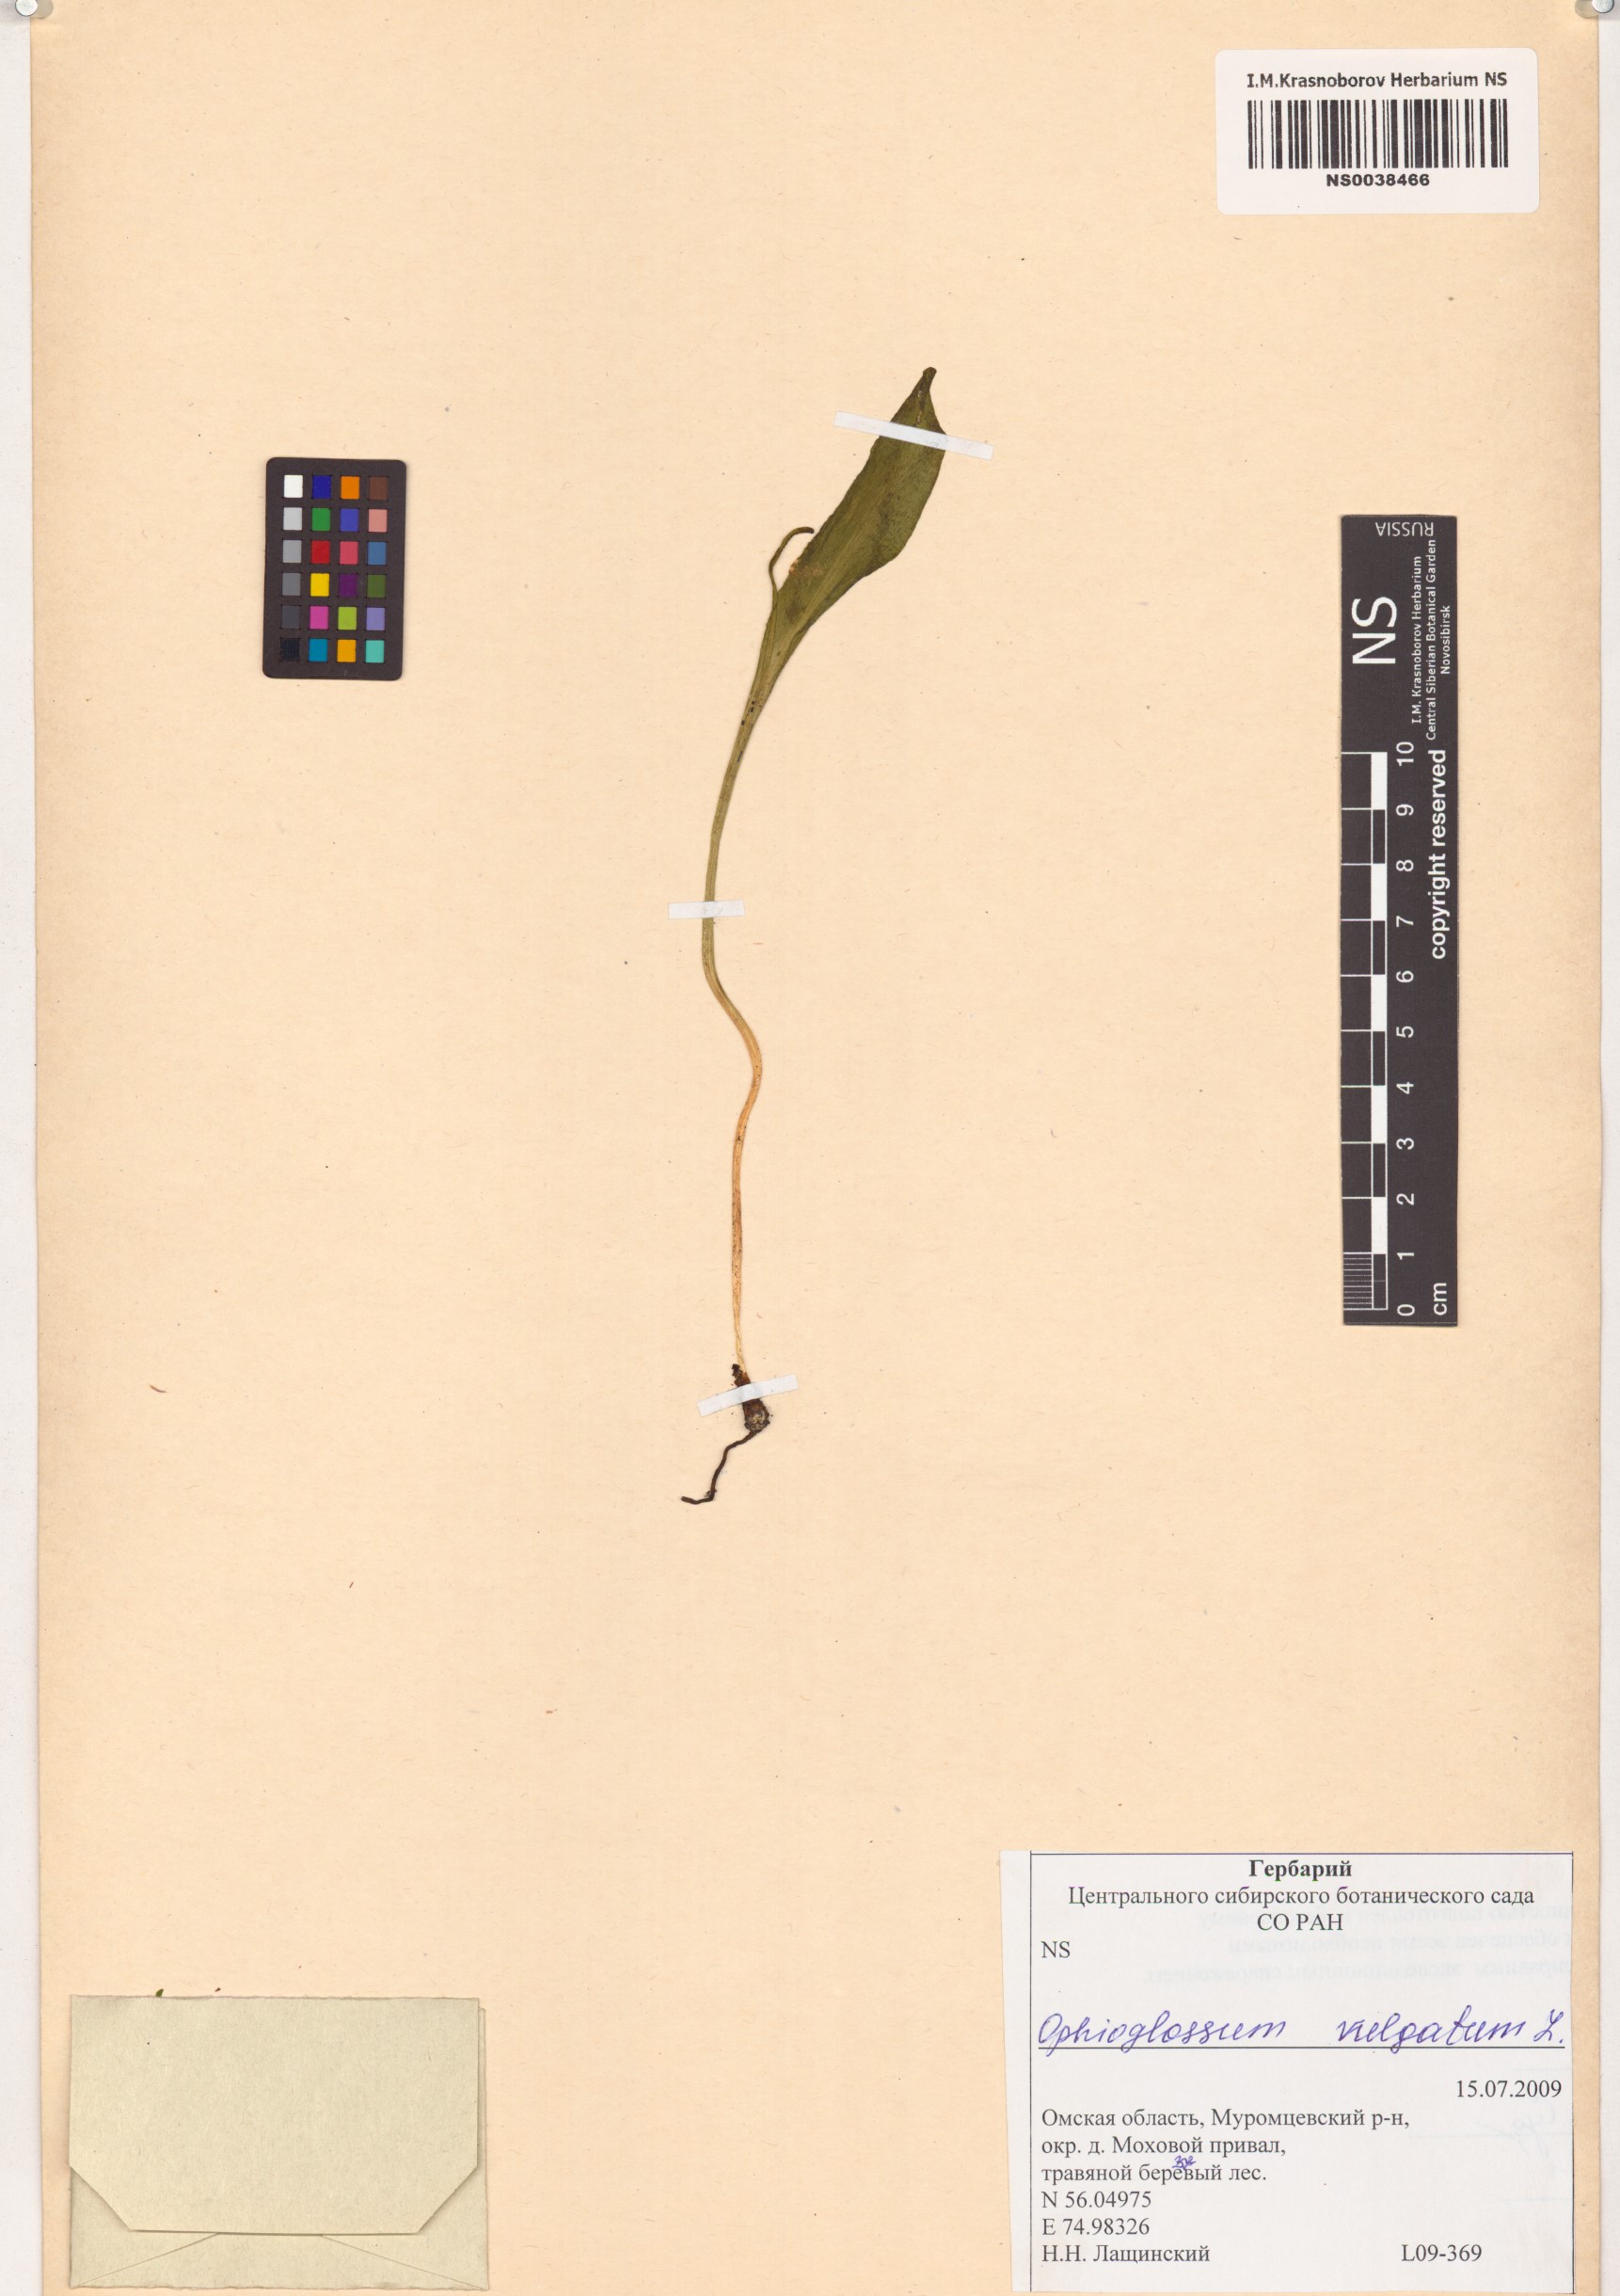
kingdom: Plantae
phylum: Tracheophyta
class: Polypodiopsida
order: Ophioglossales
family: Ophioglossaceae
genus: Ophioglossum
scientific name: Ophioglossum vulgatum
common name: Adder's-tongue
